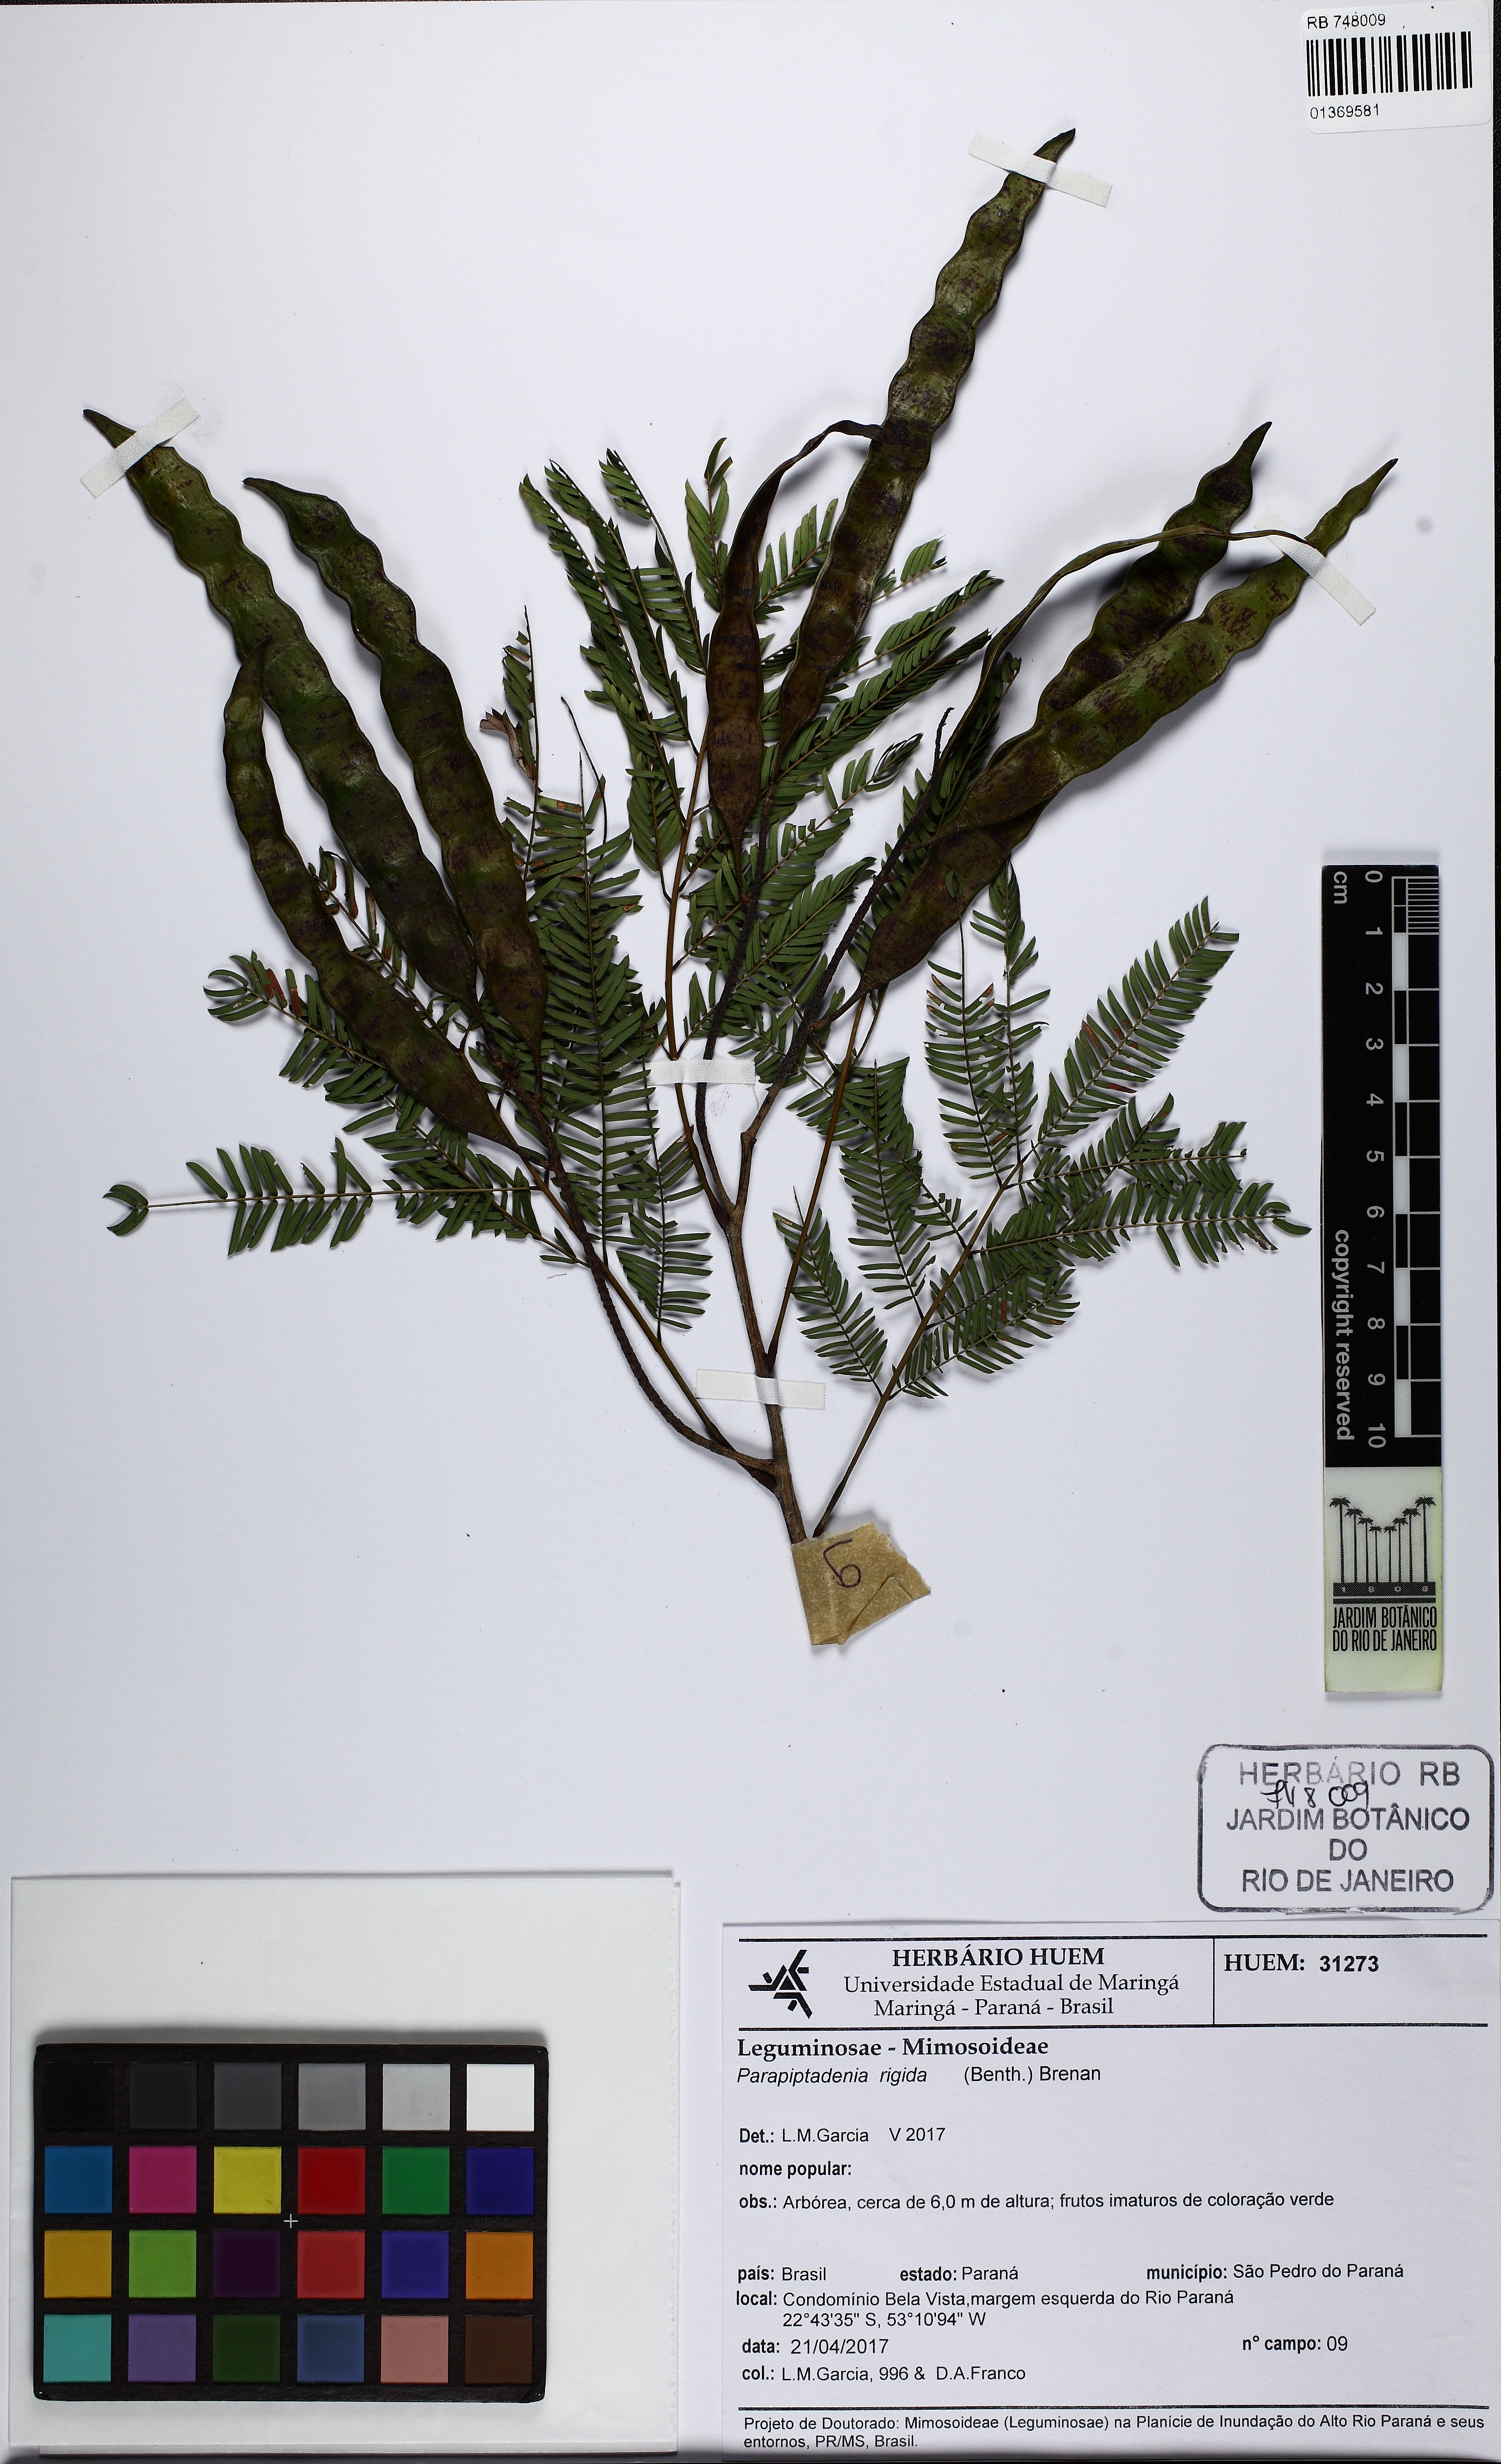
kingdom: Plantae
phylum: Tracheophyta
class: Magnoliopsida
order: Fabales
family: Fabaceae
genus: Parapiptadenia
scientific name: Parapiptadenia rigida
